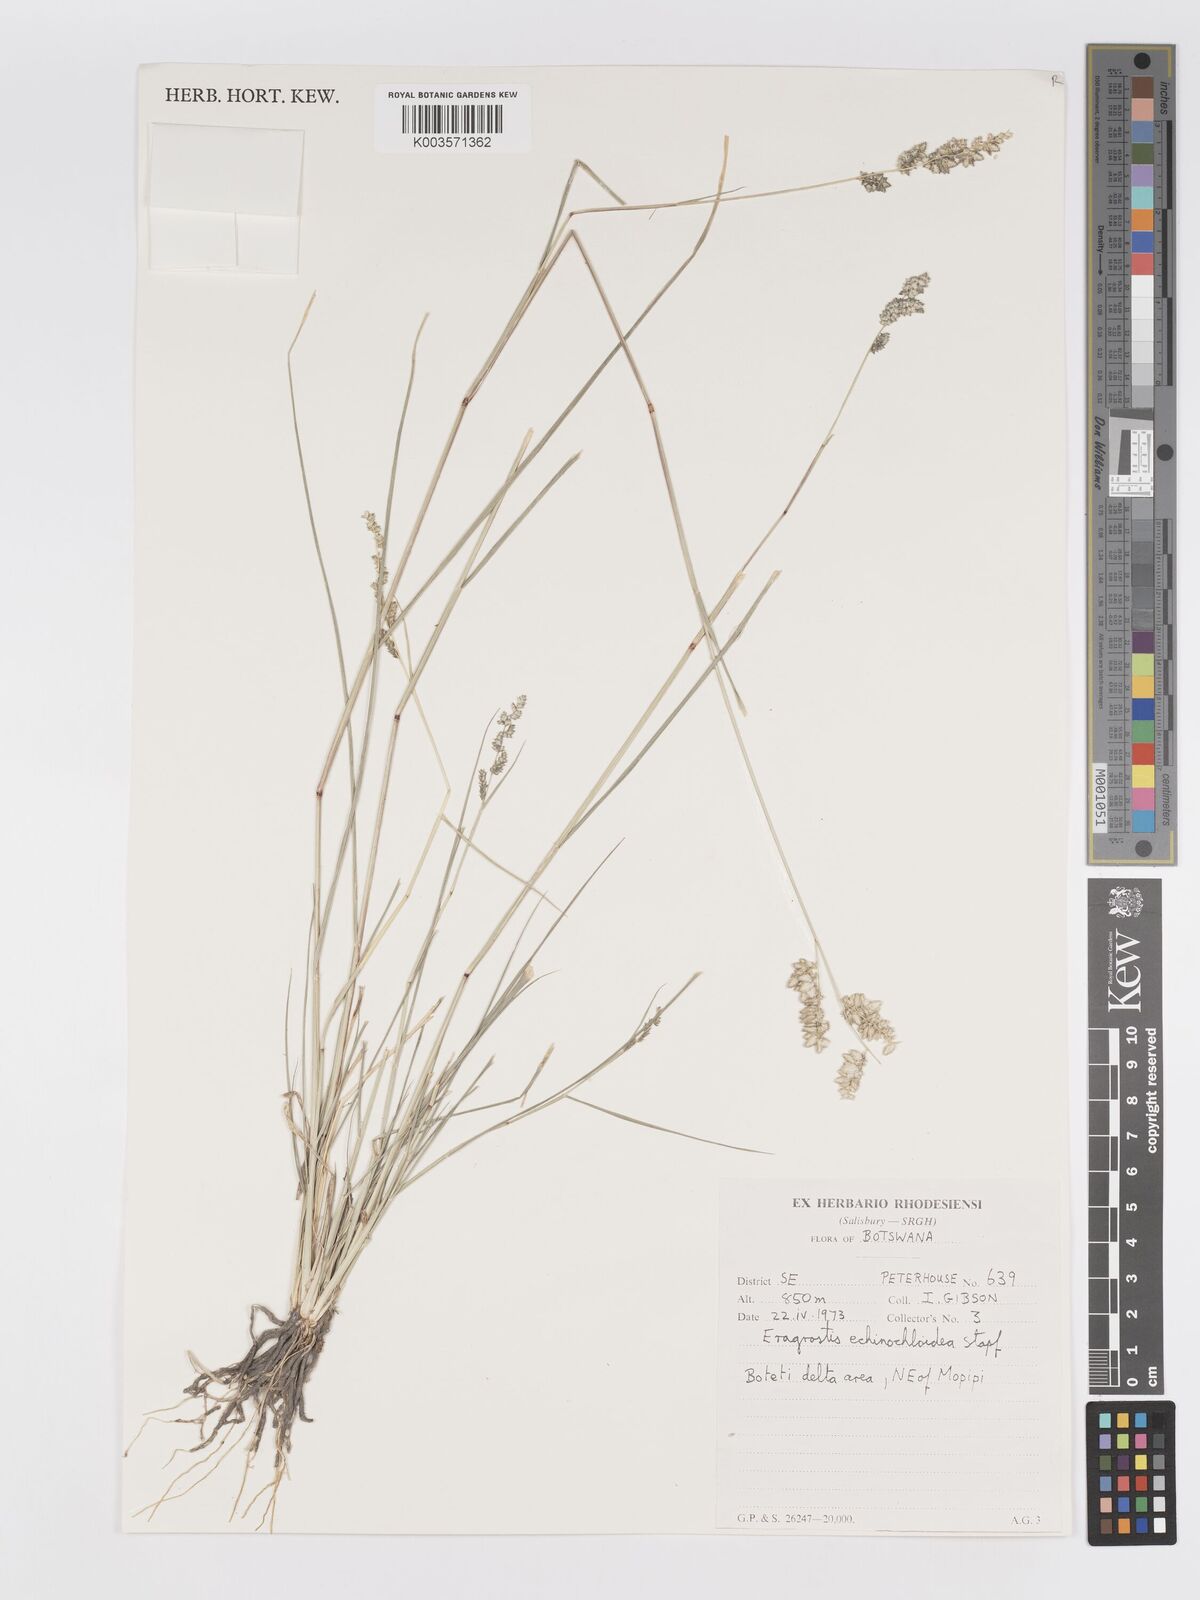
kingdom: Plantae
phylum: Tracheophyta
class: Liliopsida
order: Poales
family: Poaceae
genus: Eragrostis
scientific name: Eragrostis echinochloidea
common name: African lovegrass
